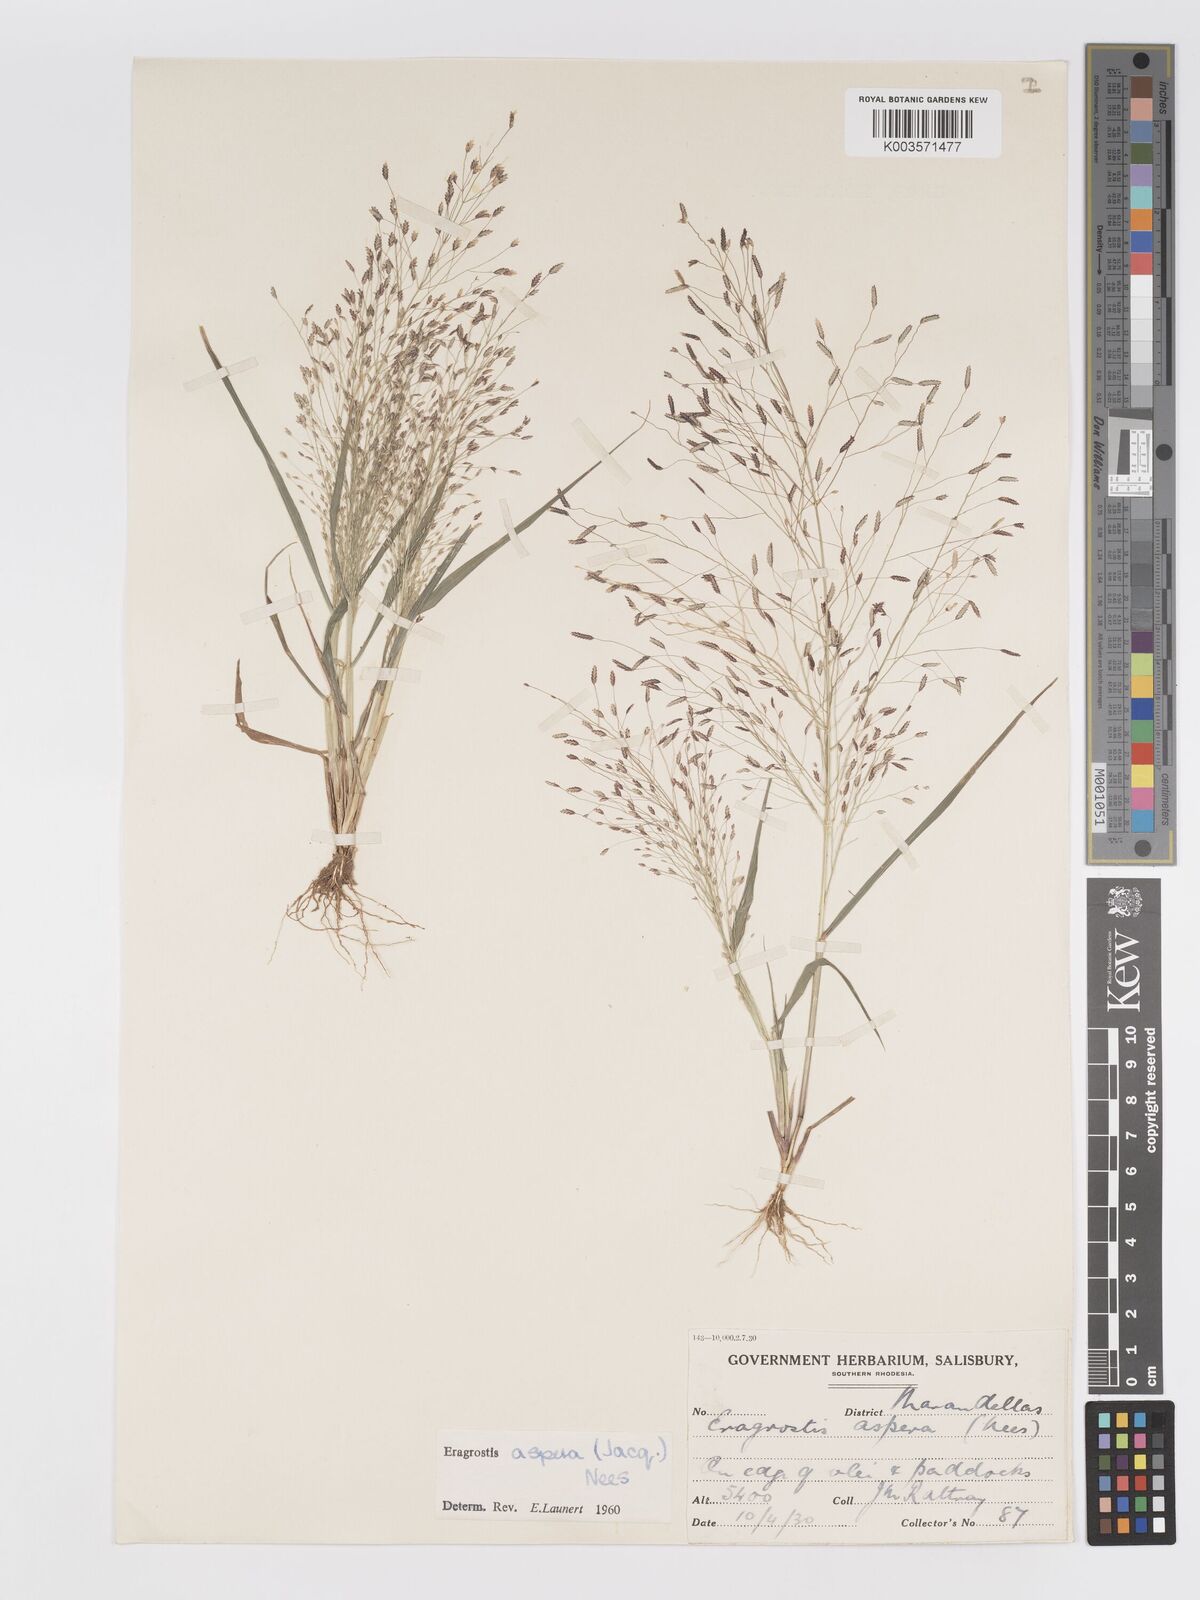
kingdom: Plantae
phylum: Tracheophyta
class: Liliopsida
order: Poales
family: Poaceae
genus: Eragrostis
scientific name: Eragrostis aspera
